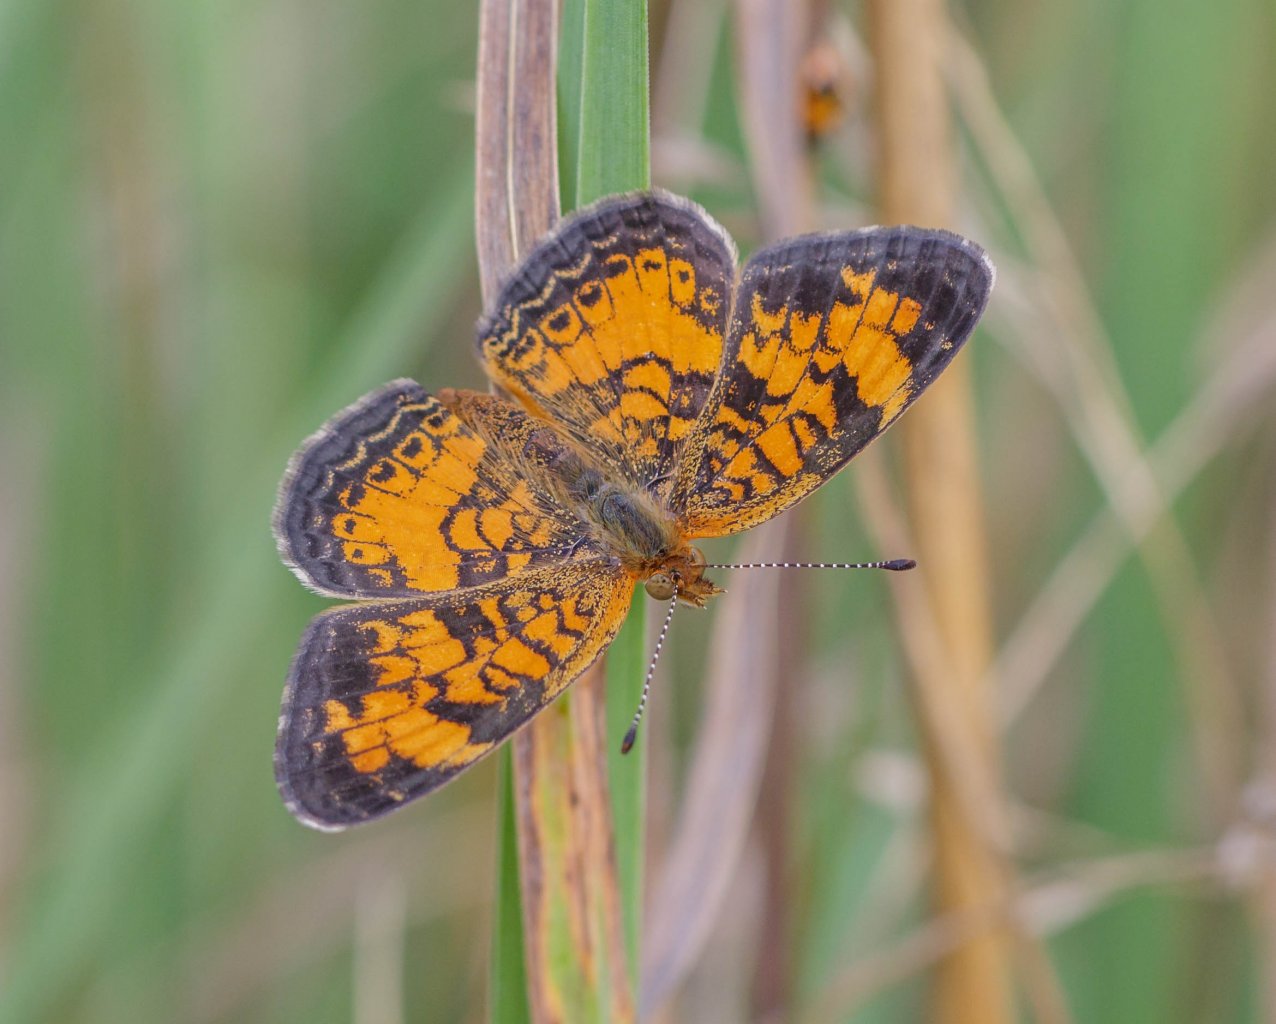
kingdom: Animalia
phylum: Arthropoda
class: Insecta
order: Lepidoptera
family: Nymphalidae
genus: Phyciodes
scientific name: Phyciodes
